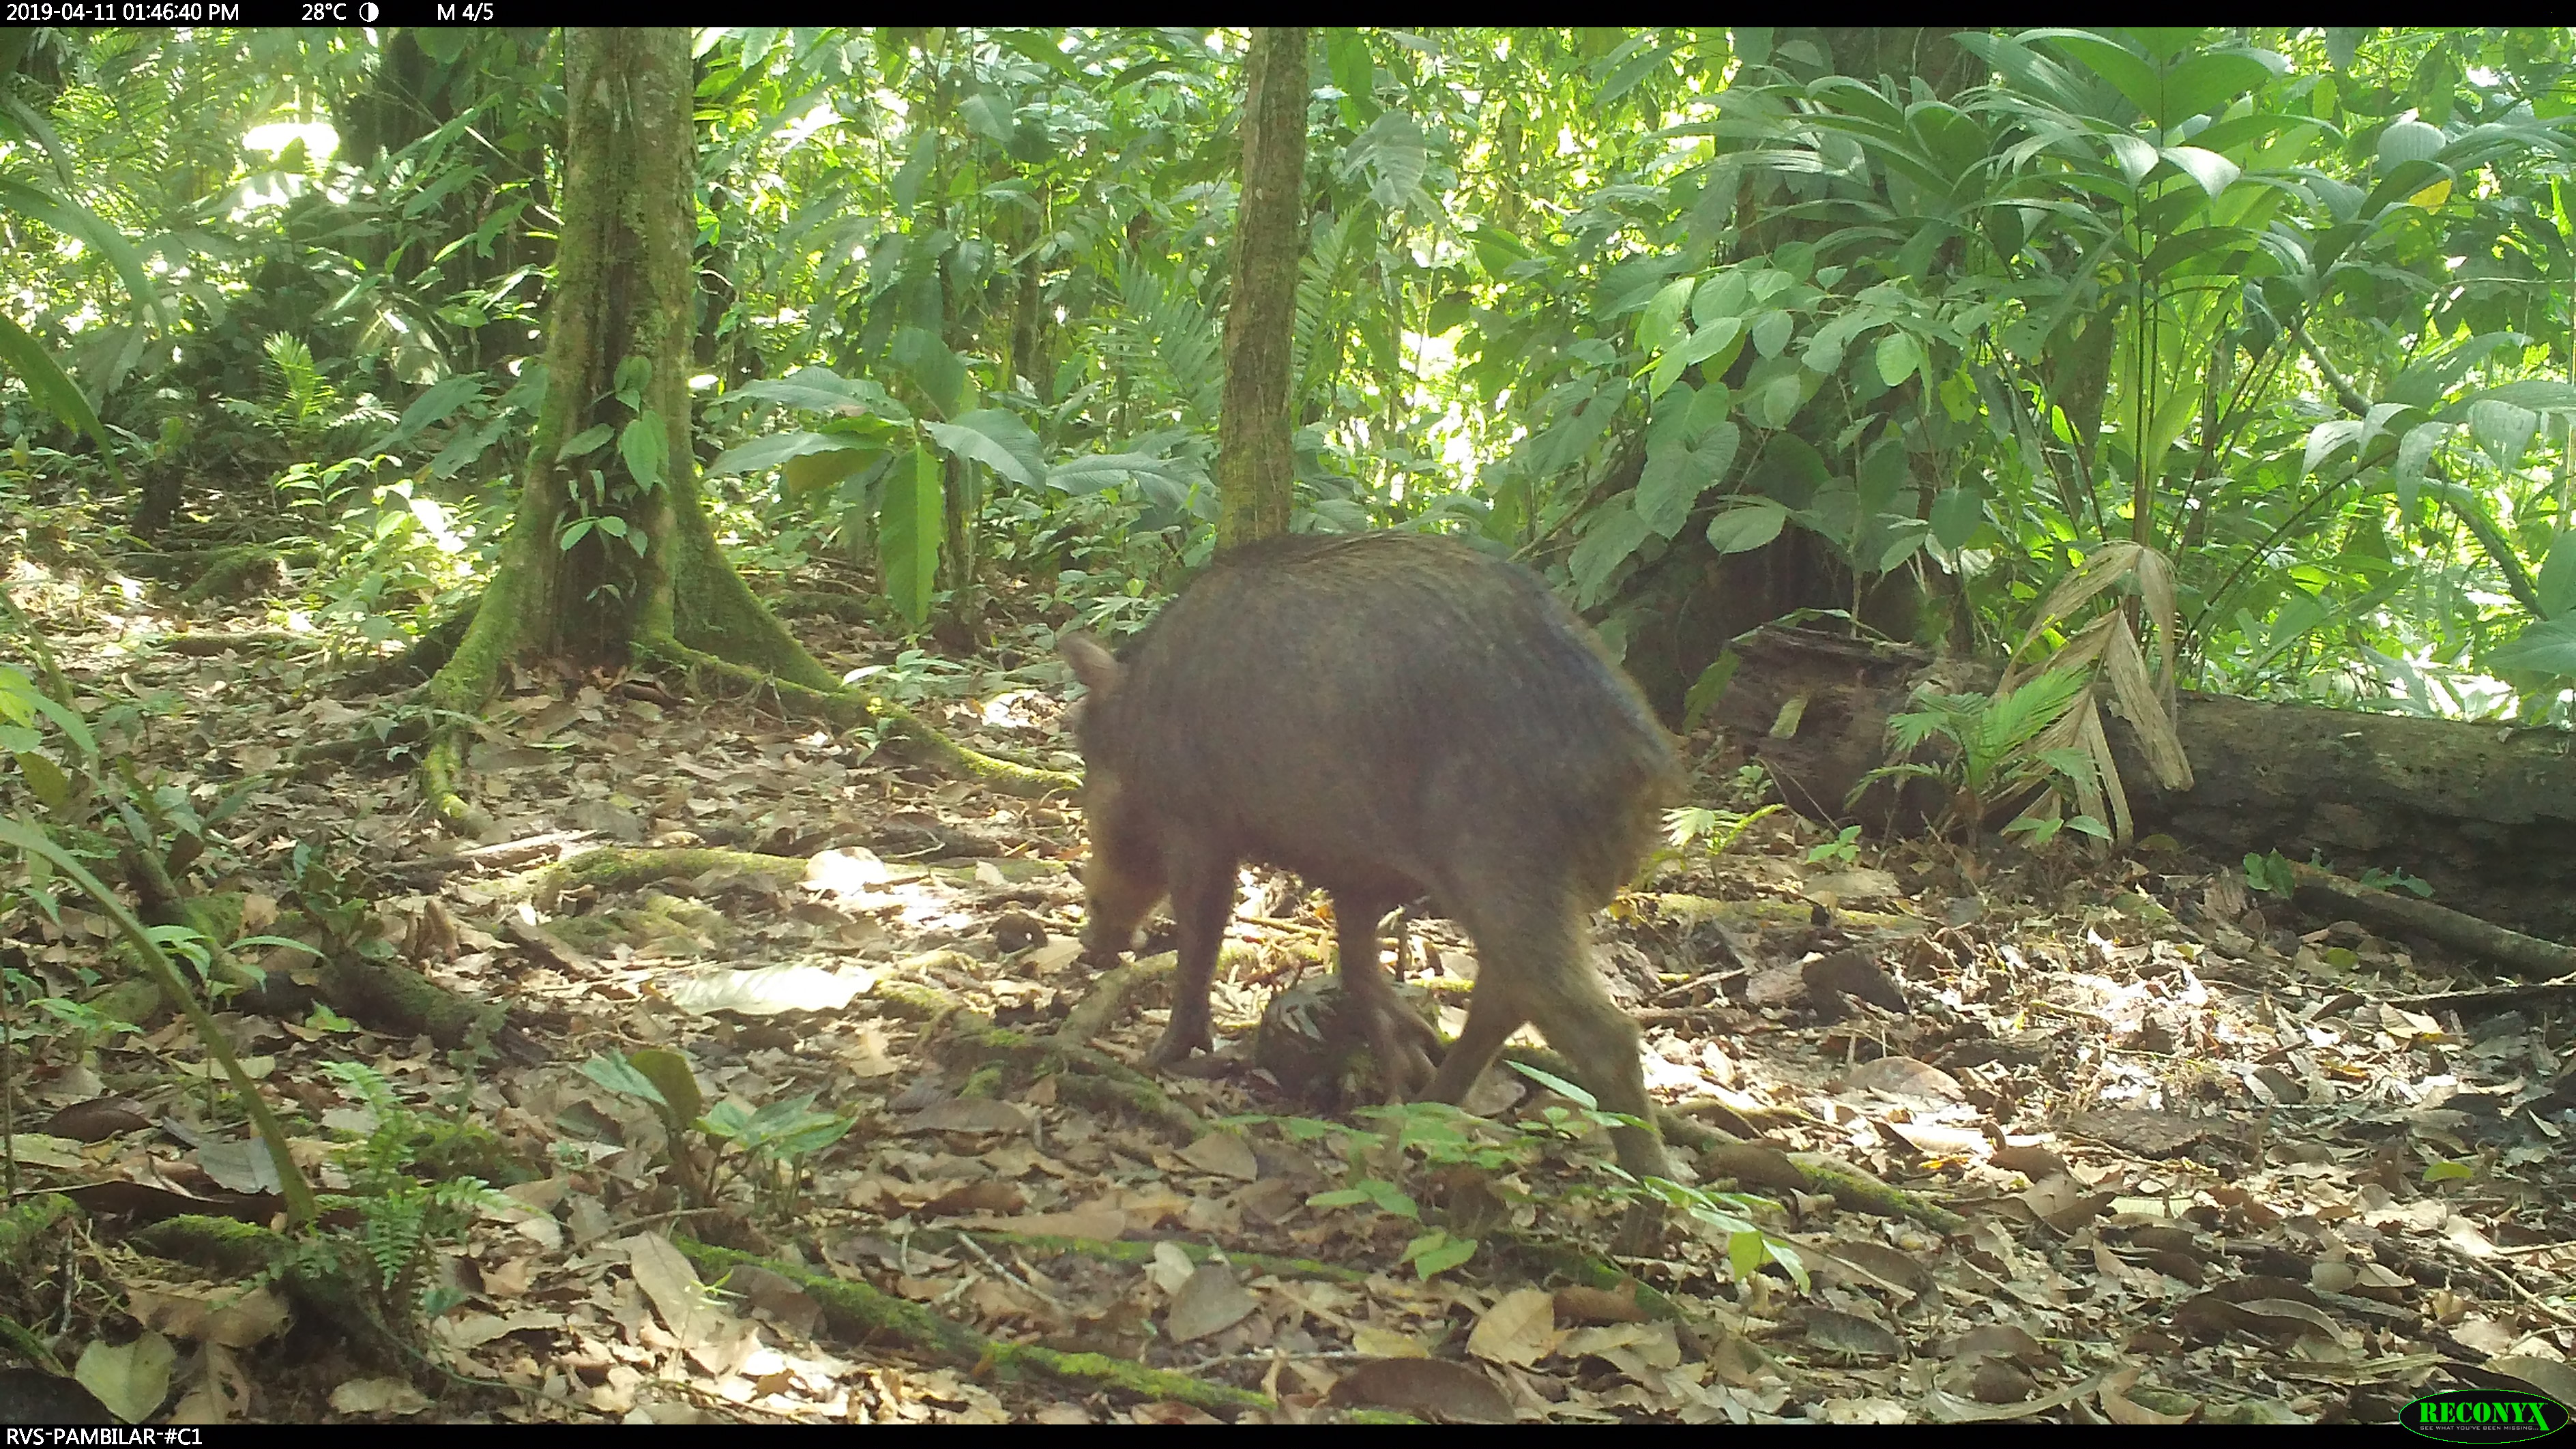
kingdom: Animalia
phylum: Chordata
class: Mammalia
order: Artiodactyla
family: Tayassuidae
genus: Tayassu
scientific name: Tayassu pecari
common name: White-lipped peccary
